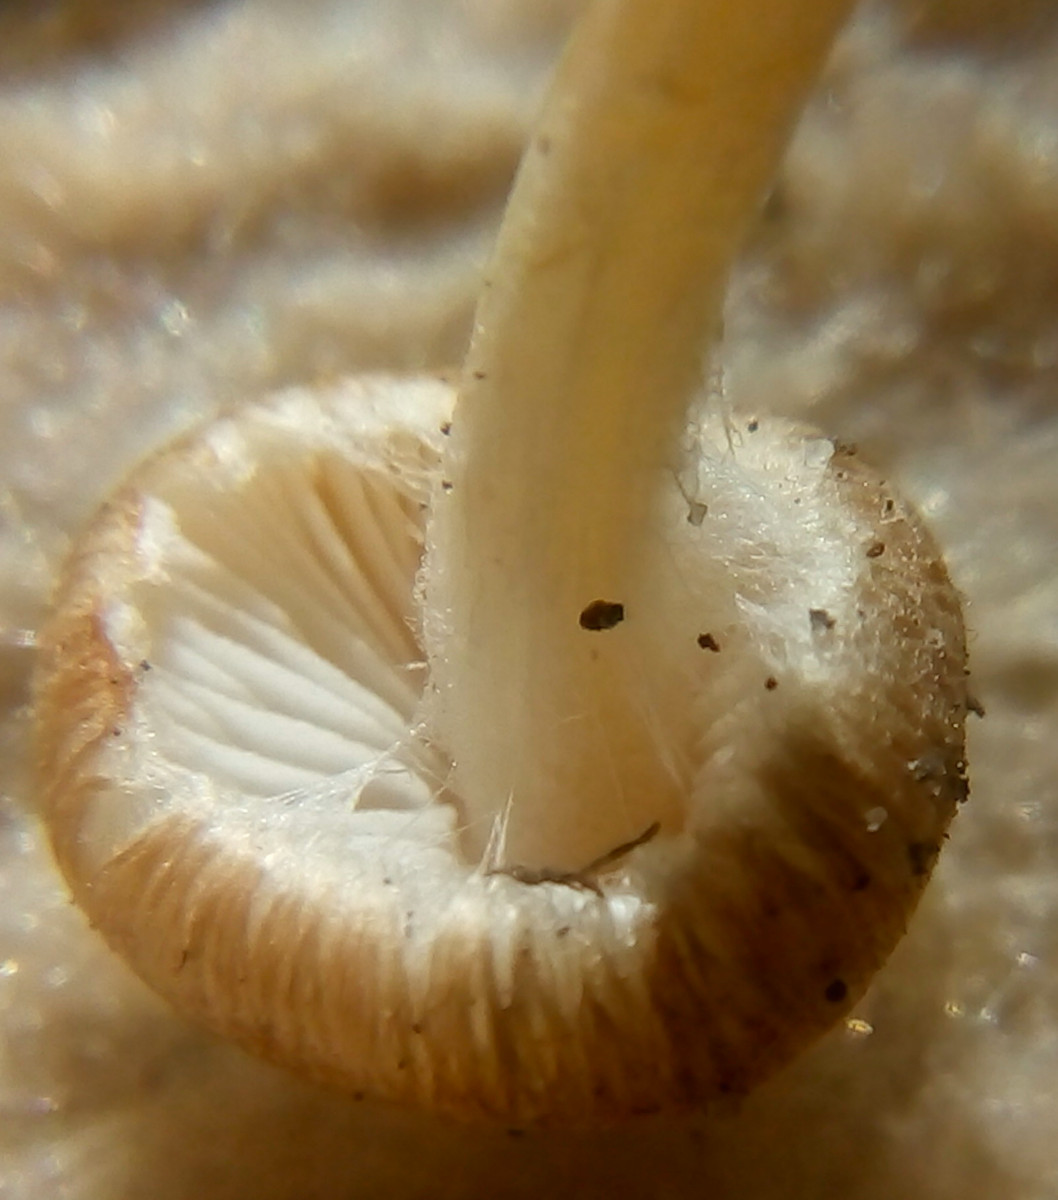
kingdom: Fungi
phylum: Basidiomycota
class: Agaricomycetes
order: Agaricales
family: Inocybaceae
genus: Inocybe
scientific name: Inocybe
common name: trævlhat
